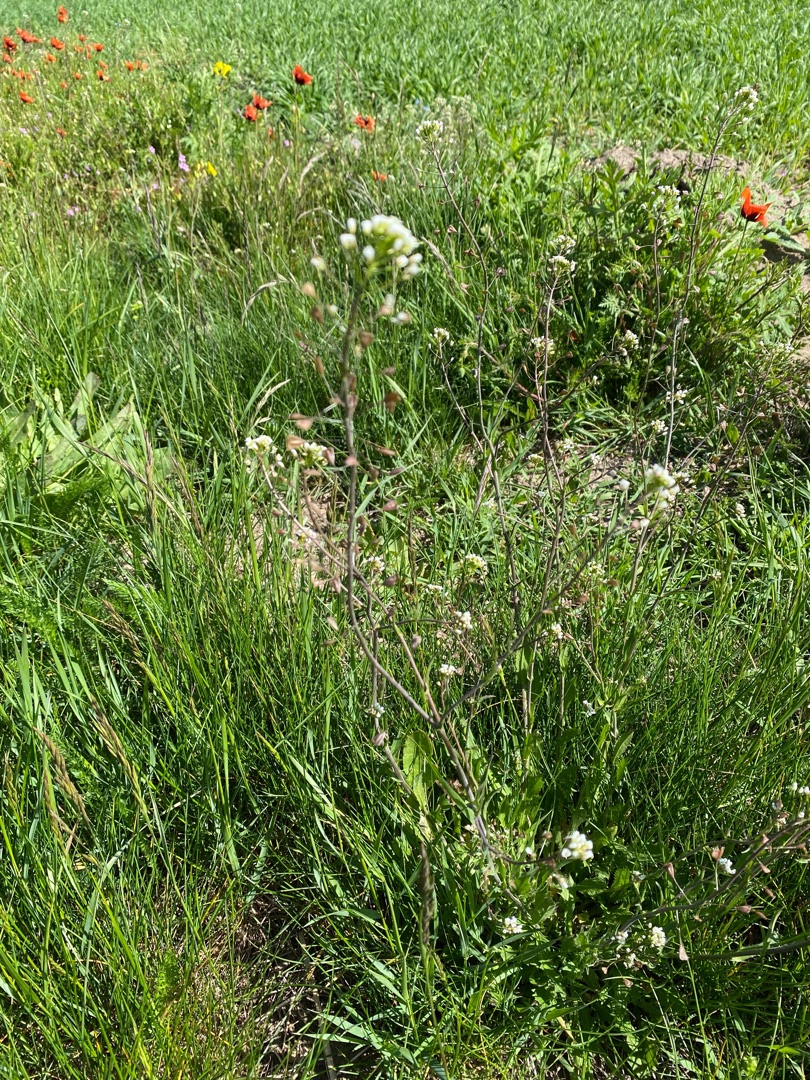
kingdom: Plantae
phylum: Tracheophyta
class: Magnoliopsida
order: Brassicales
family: Brassicaceae
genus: Capsella
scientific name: Capsella bursa-pastoris
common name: Hyrdetaske
